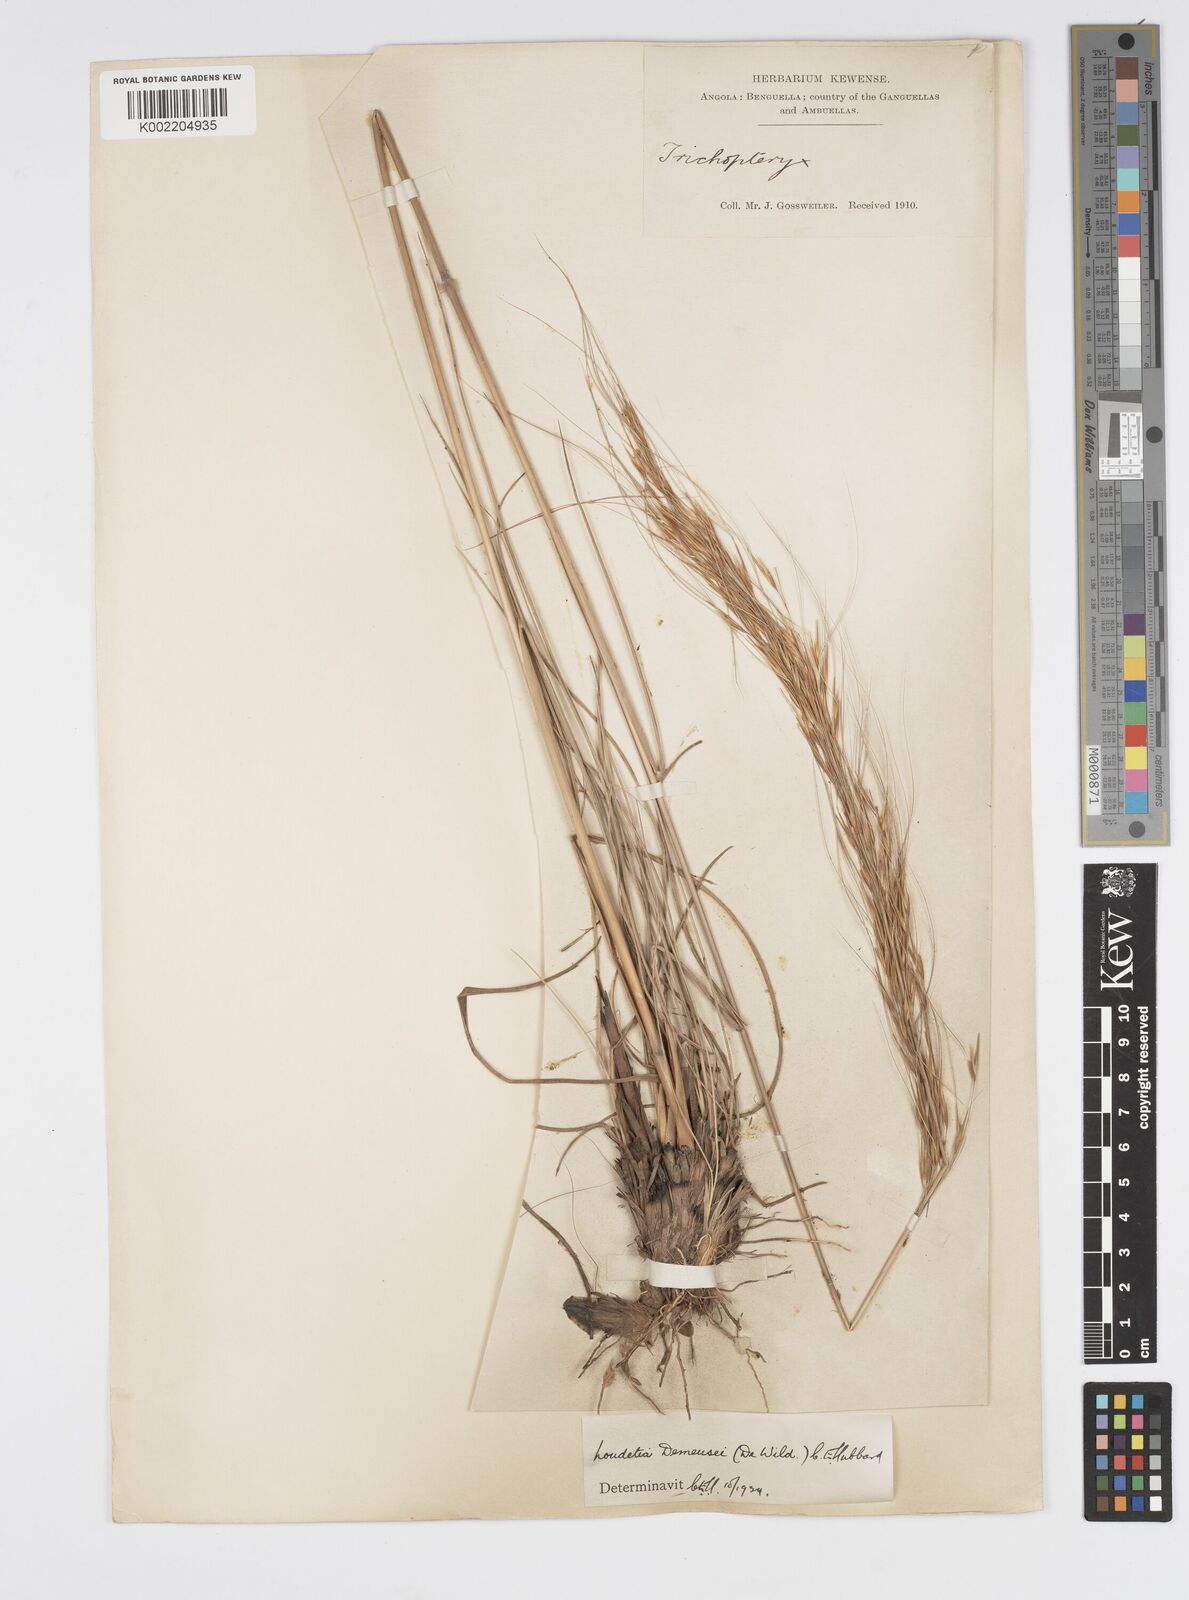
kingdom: Plantae
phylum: Tracheophyta
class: Liliopsida
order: Poales
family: Poaceae
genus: Loudetia
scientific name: Loudetia lanata
